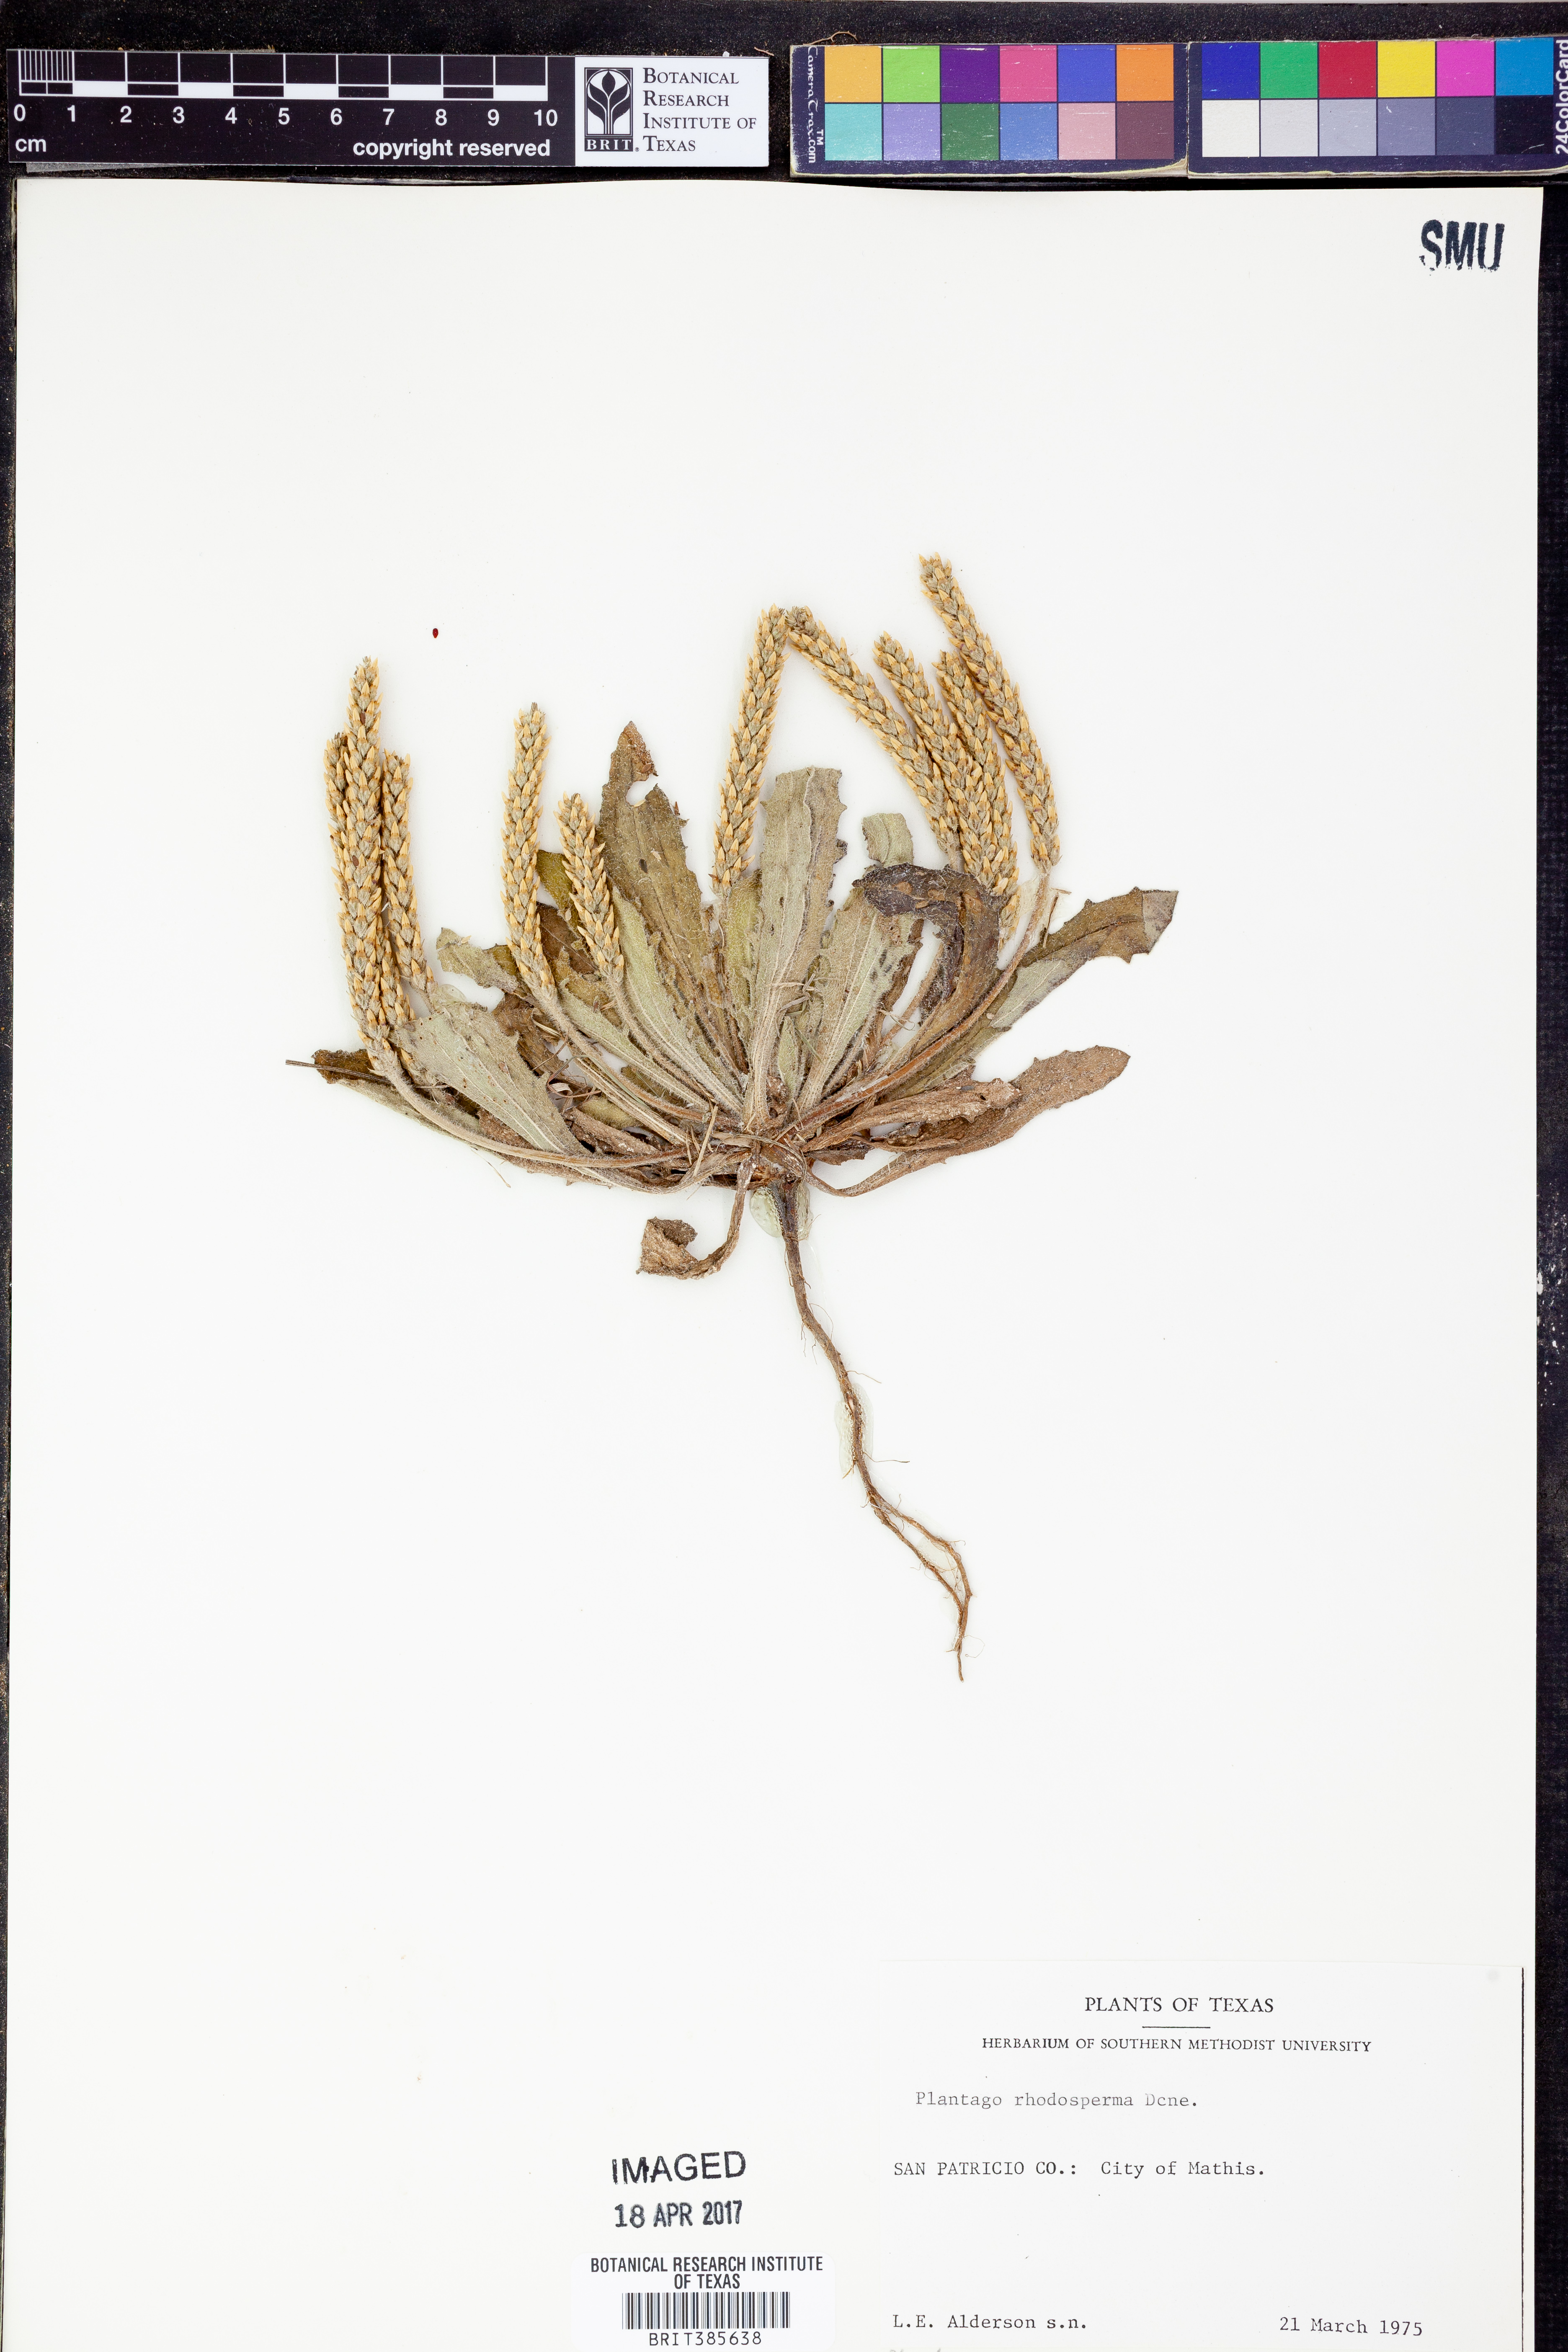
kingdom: Plantae
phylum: Tracheophyta
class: Magnoliopsida
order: Lamiales
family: Plantaginaceae
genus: Plantago
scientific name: Plantago rhodosperma
